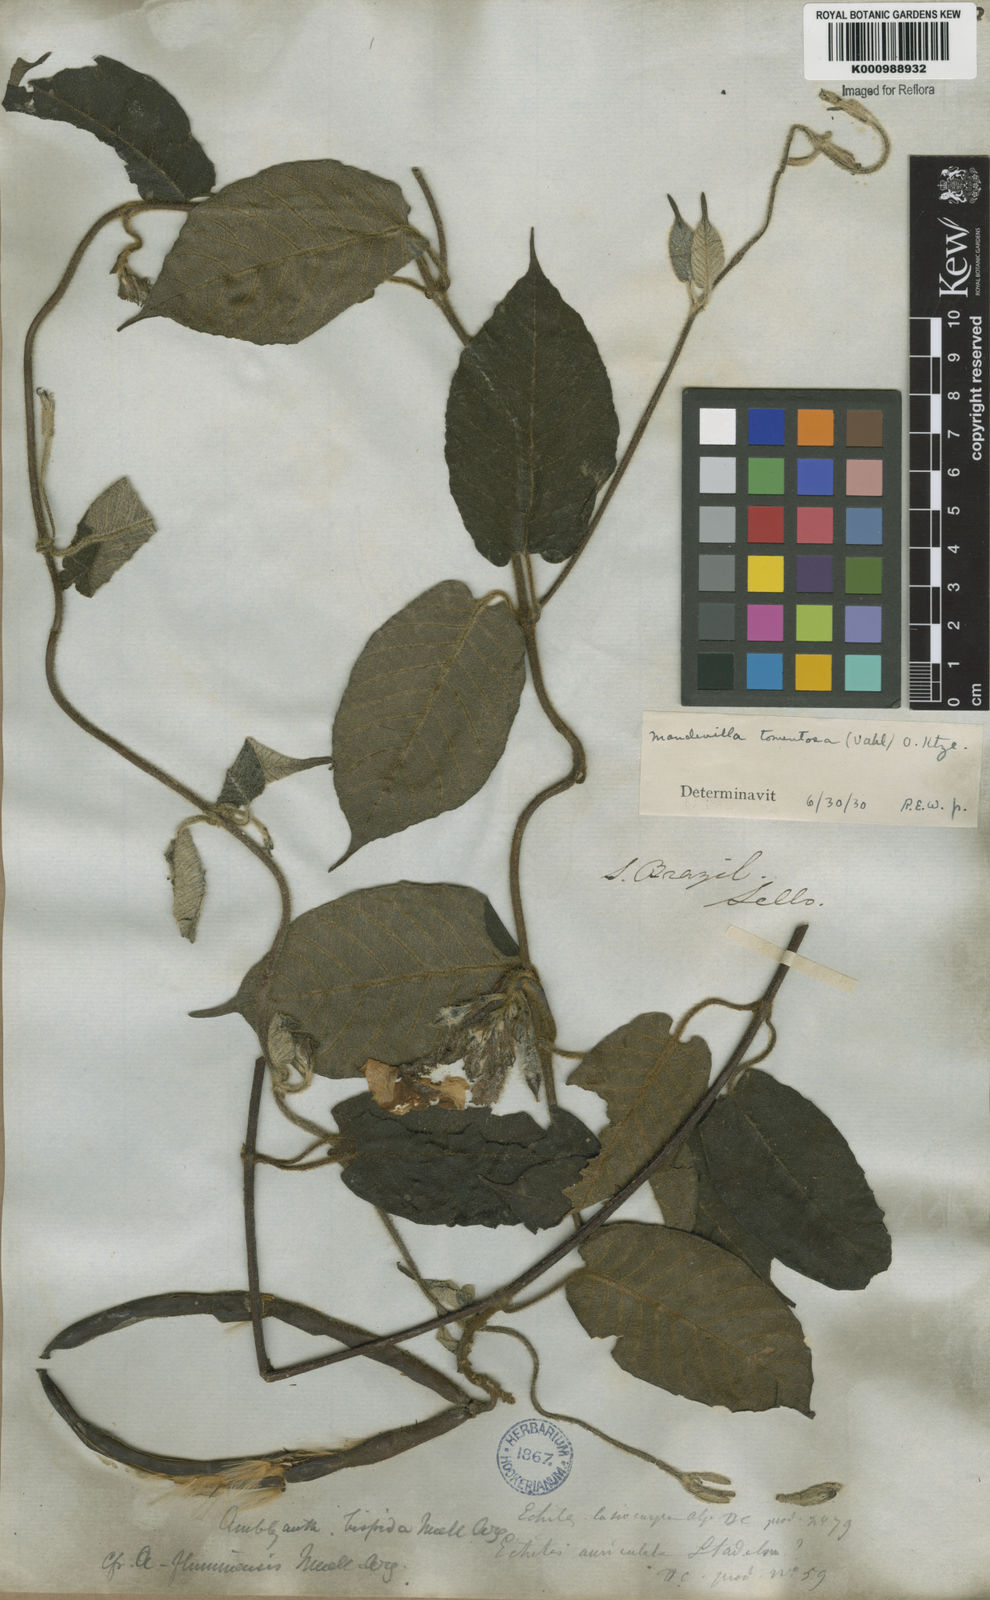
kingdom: Plantae
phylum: Tracheophyta
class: Magnoliopsida
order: Gentianales
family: Apocynaceae
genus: Mandevilla
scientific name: Mandevilla hirsuta
